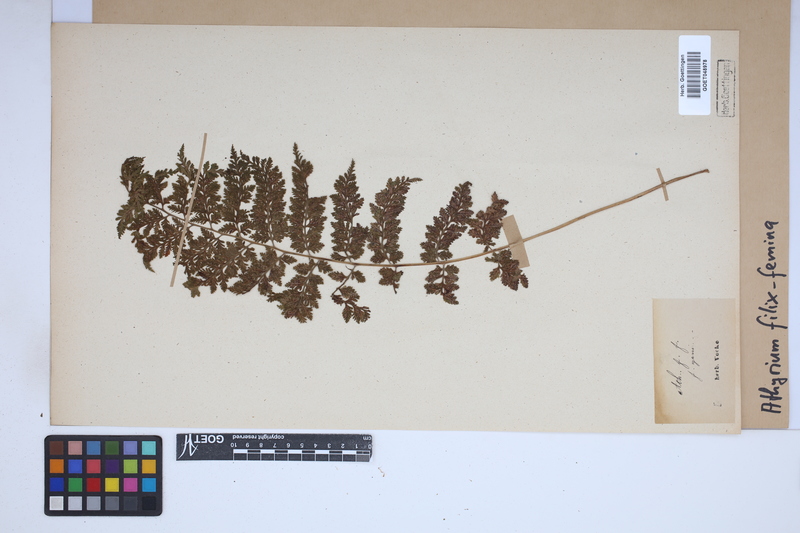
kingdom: Plantae
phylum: Tracheophyta
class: Polypodiopsida
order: Polypodiales
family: Athyriaceae
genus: Athyrium
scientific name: Athyrium filix-femina
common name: Lady fern
